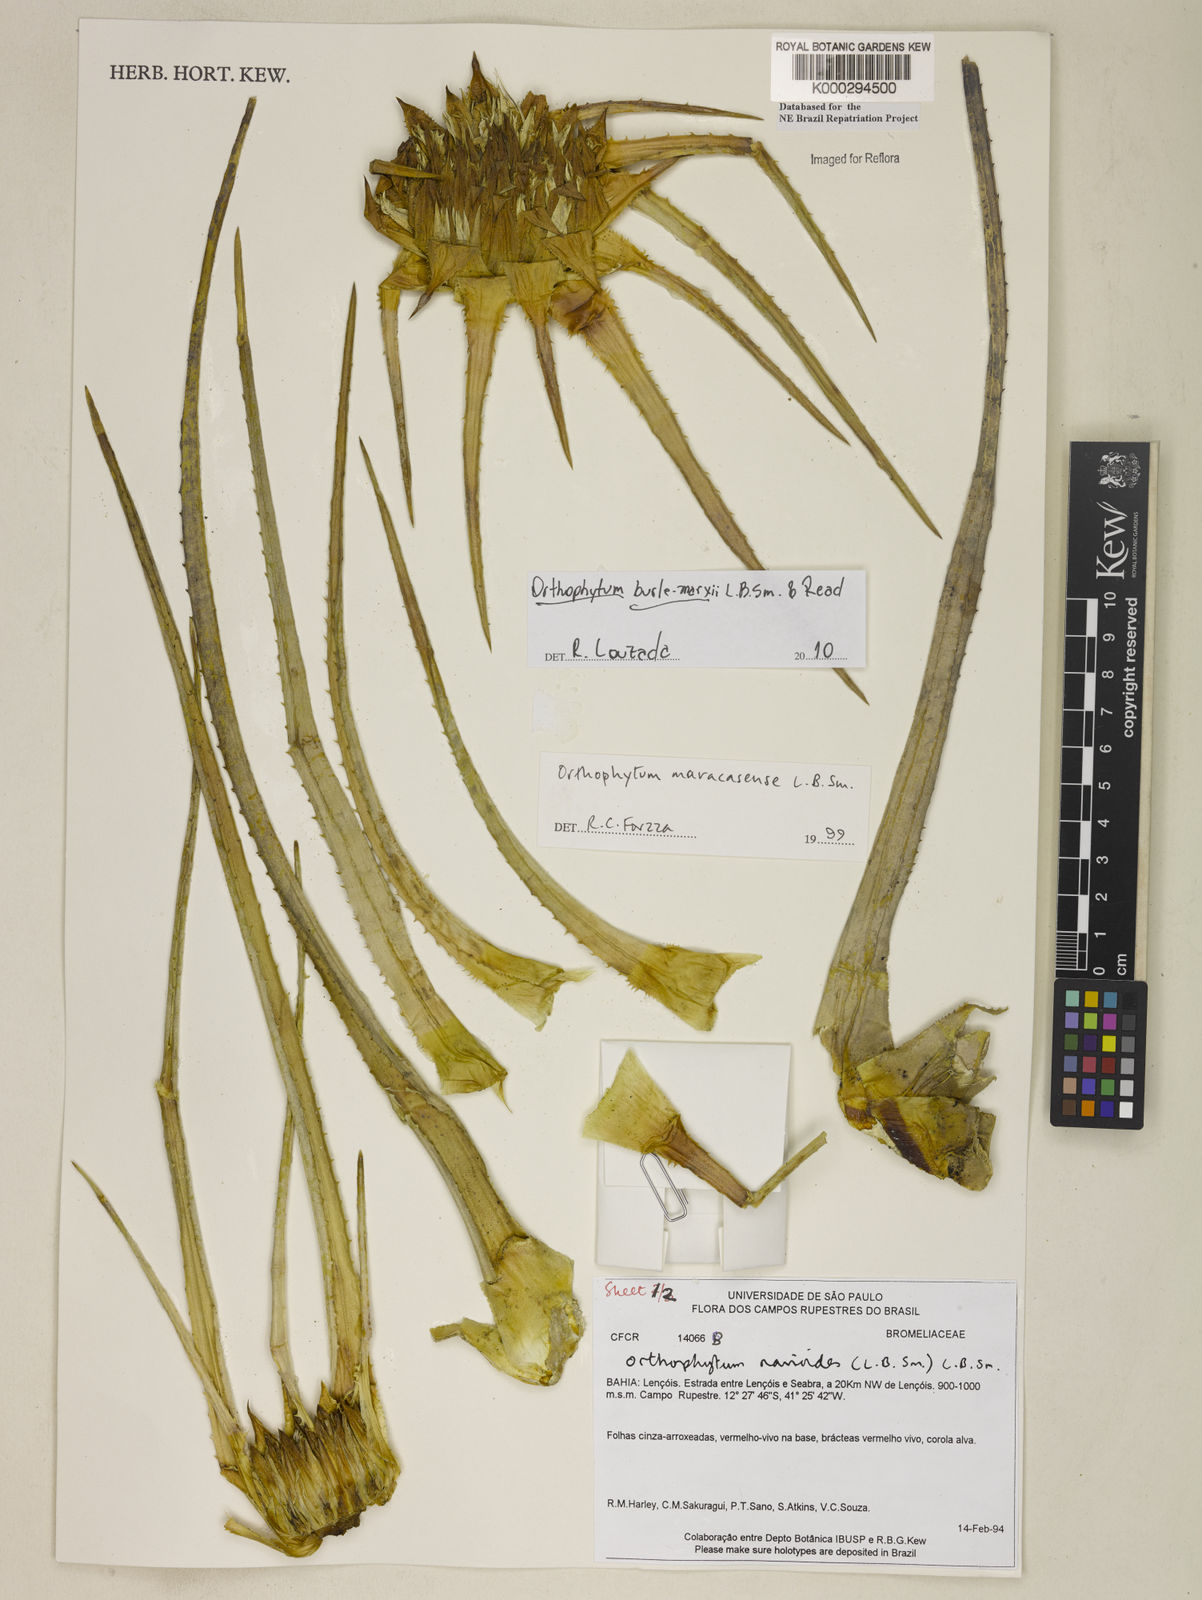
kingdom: Plantae
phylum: Tracheophyta
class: Liliopsida
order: Poales
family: Bromeliaceae
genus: Sincoraea
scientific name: Sincoraea navioides
